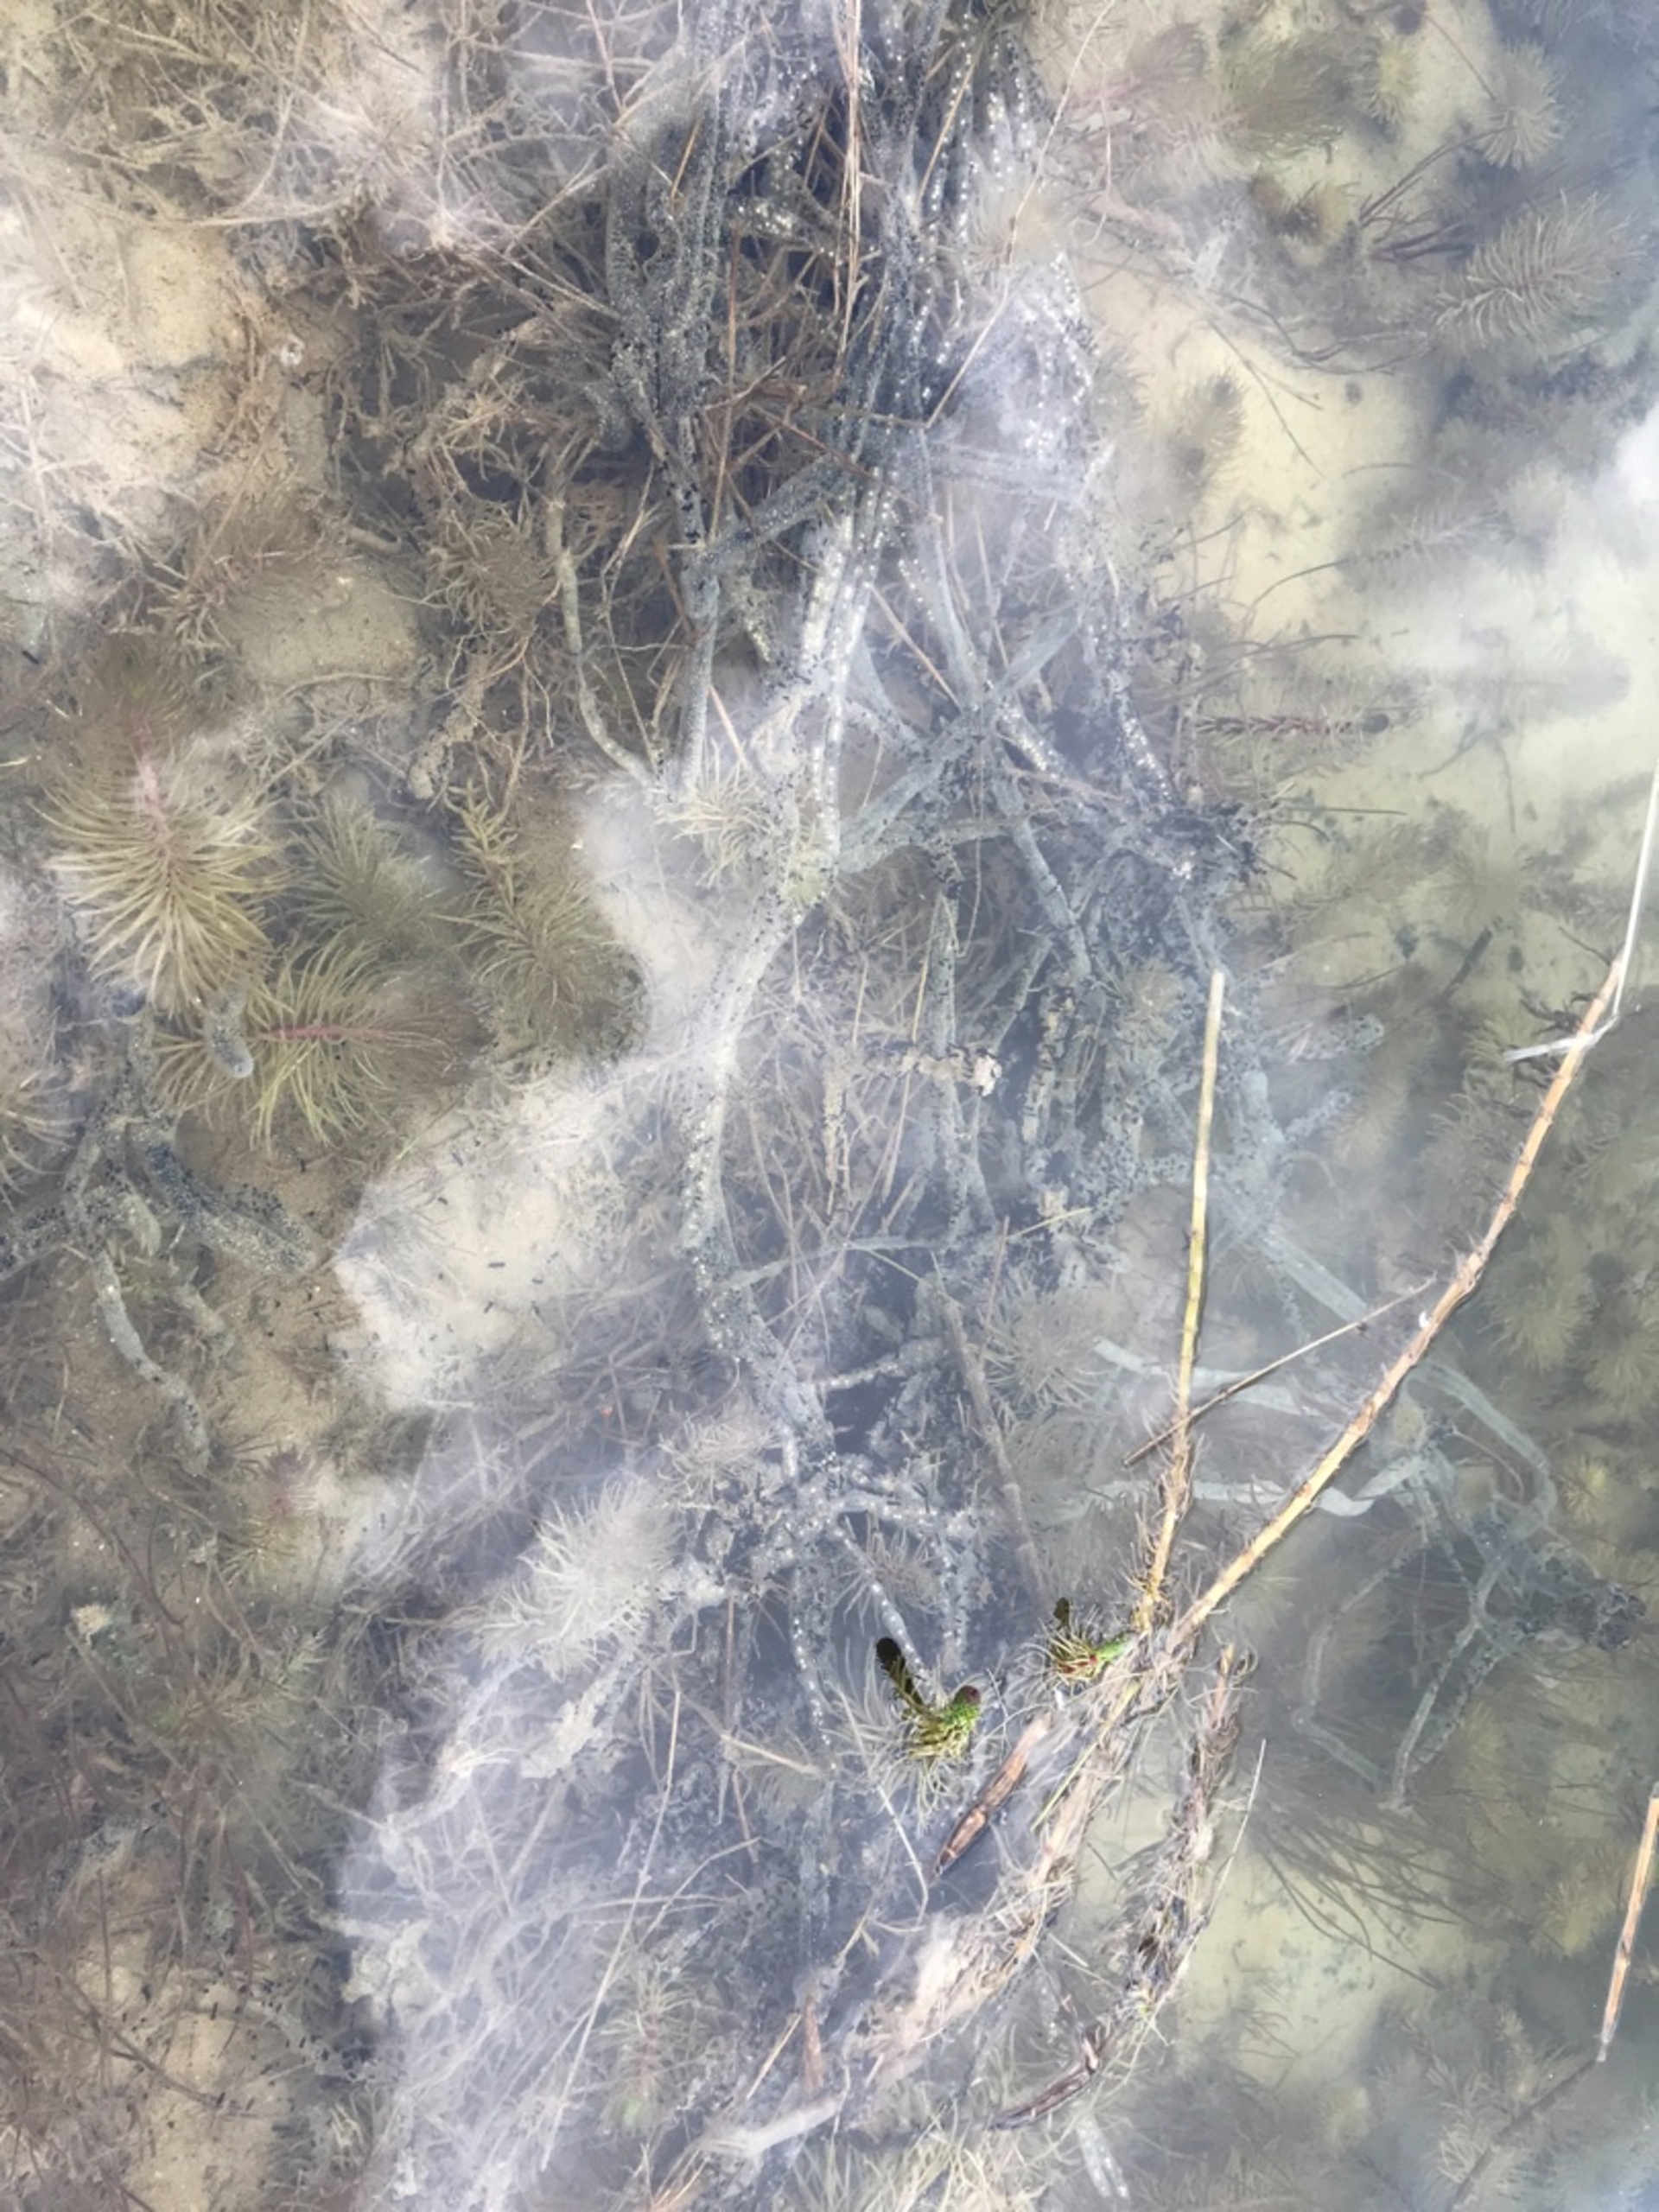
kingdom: Animalia
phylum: Chordata
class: Amphibia
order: Anura
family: Bufonidae
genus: Bufo
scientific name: Bufo bufo
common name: Skrubtudse
